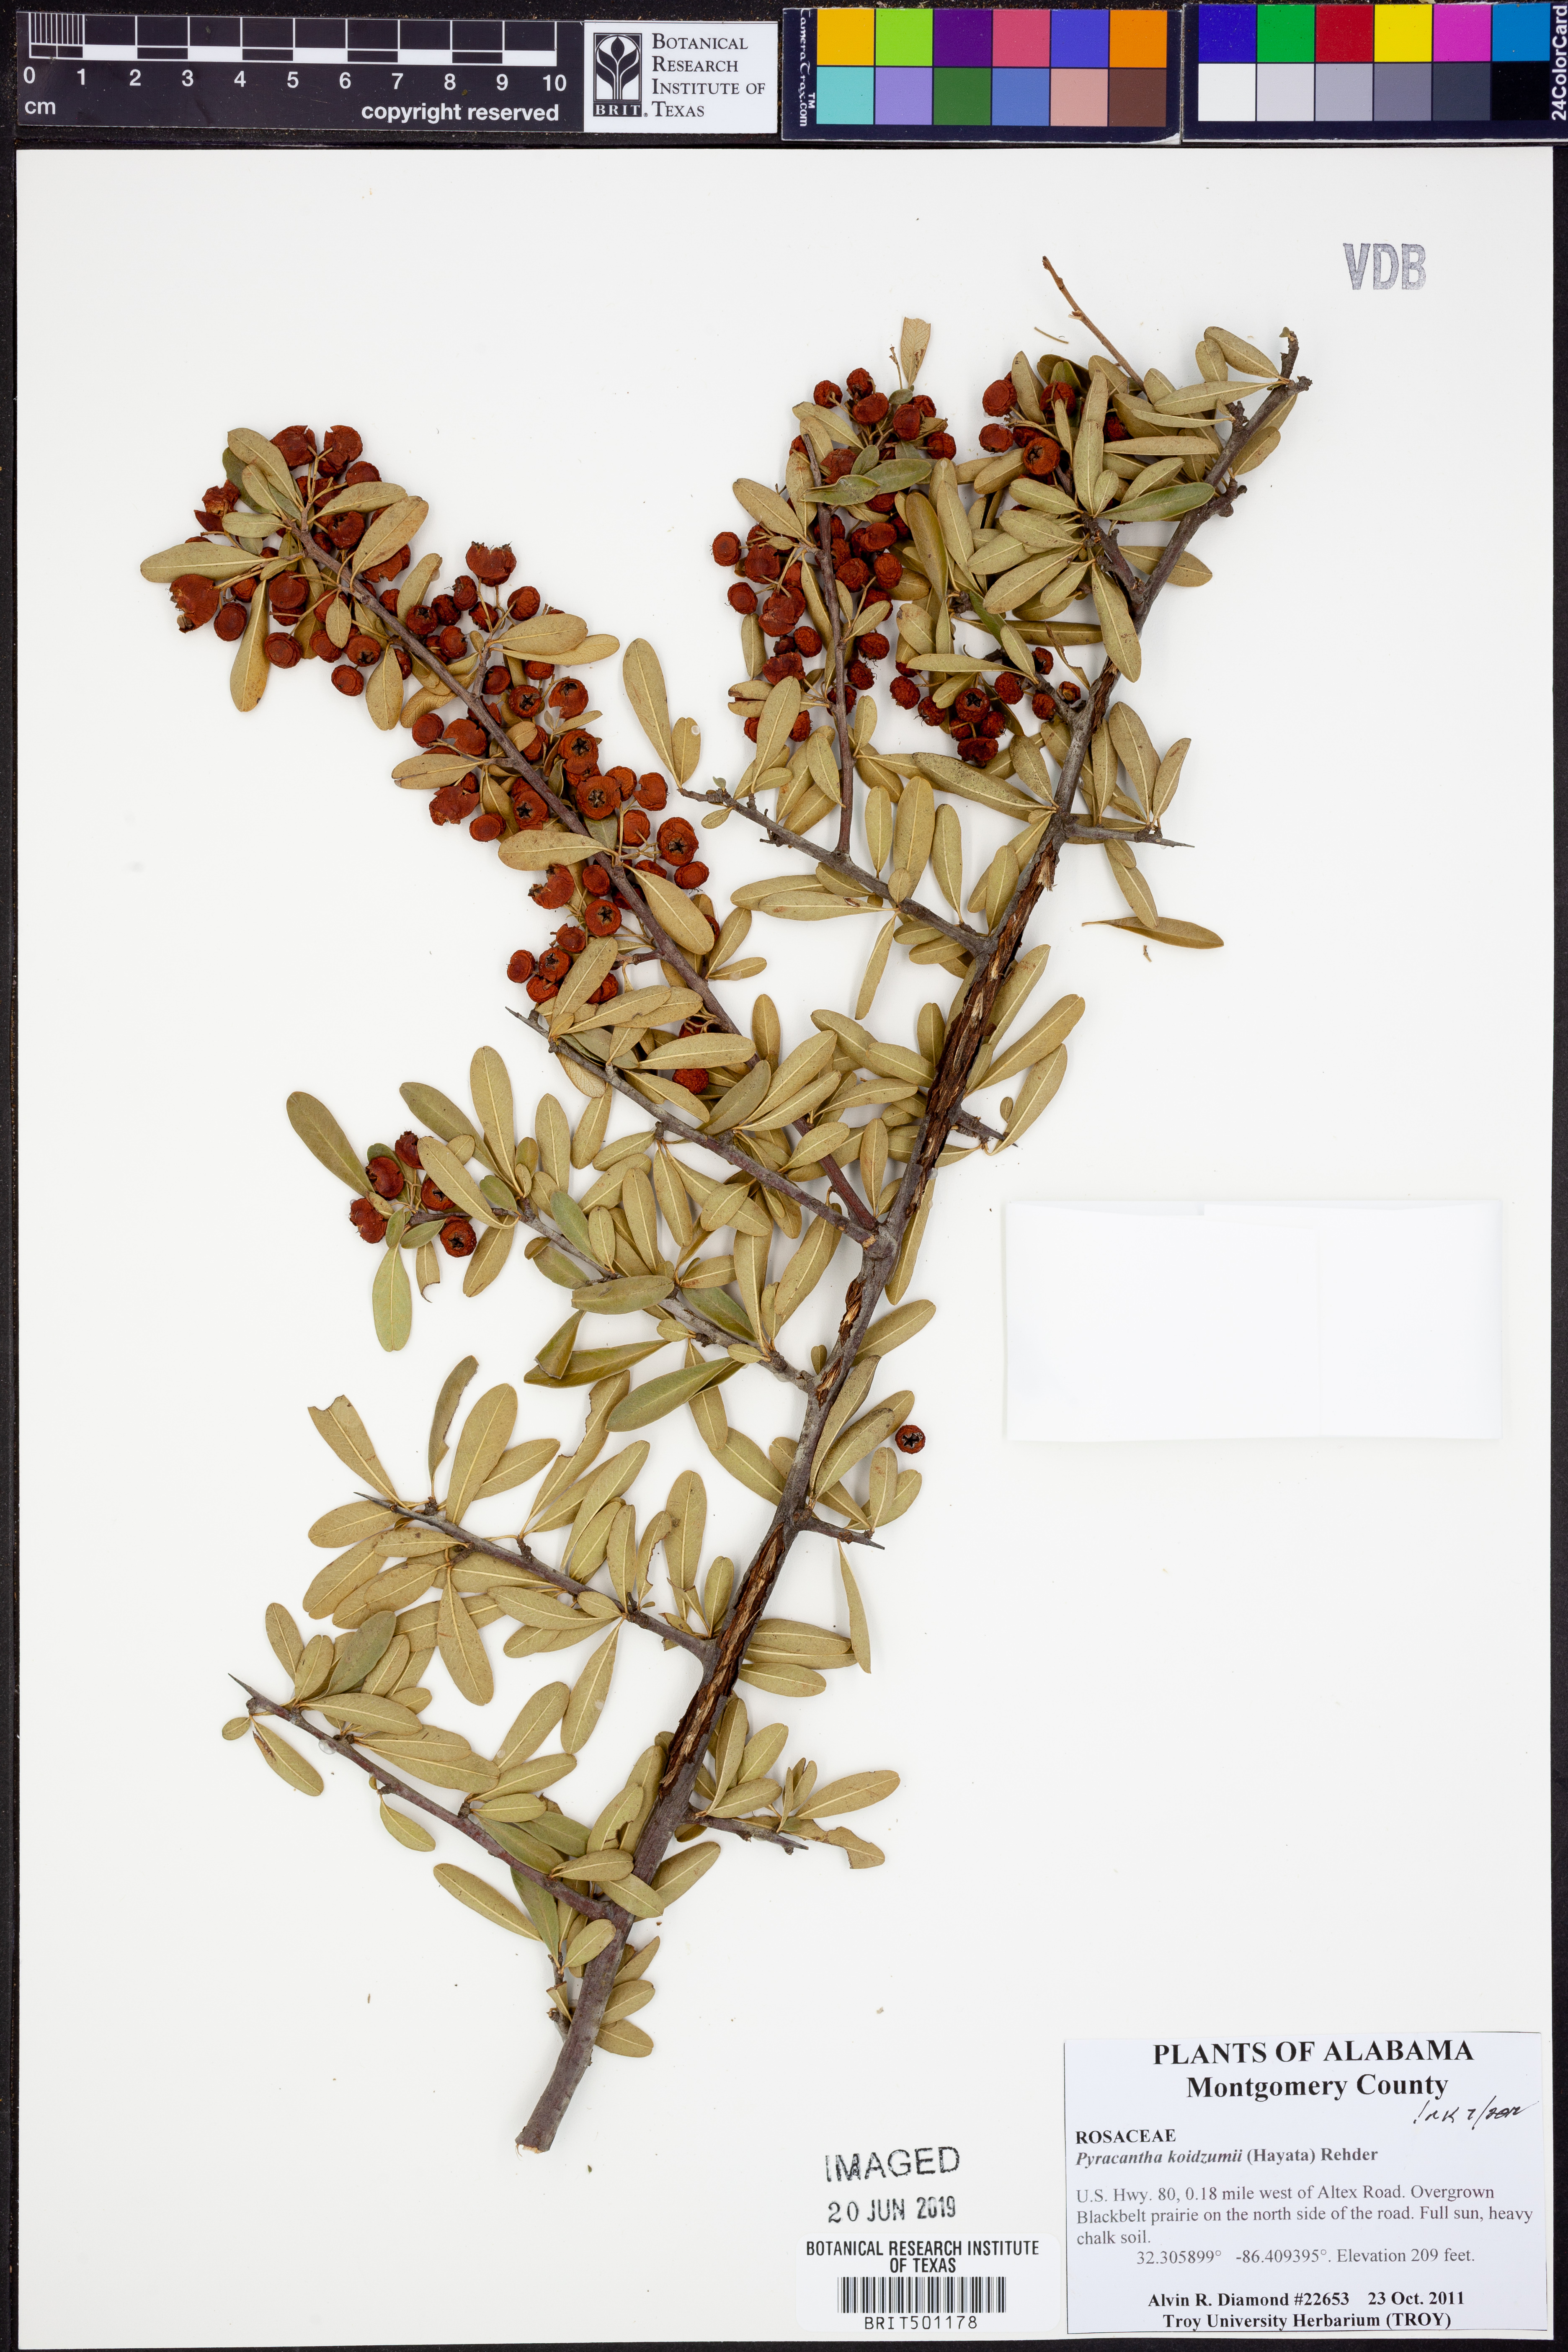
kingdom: Plantae
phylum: Tracheophyta
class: Magnoliopsida
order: Rosales
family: Rosaceae
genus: Pyracantha
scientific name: Pyracantha koidzumii
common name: Formosa firethorn
